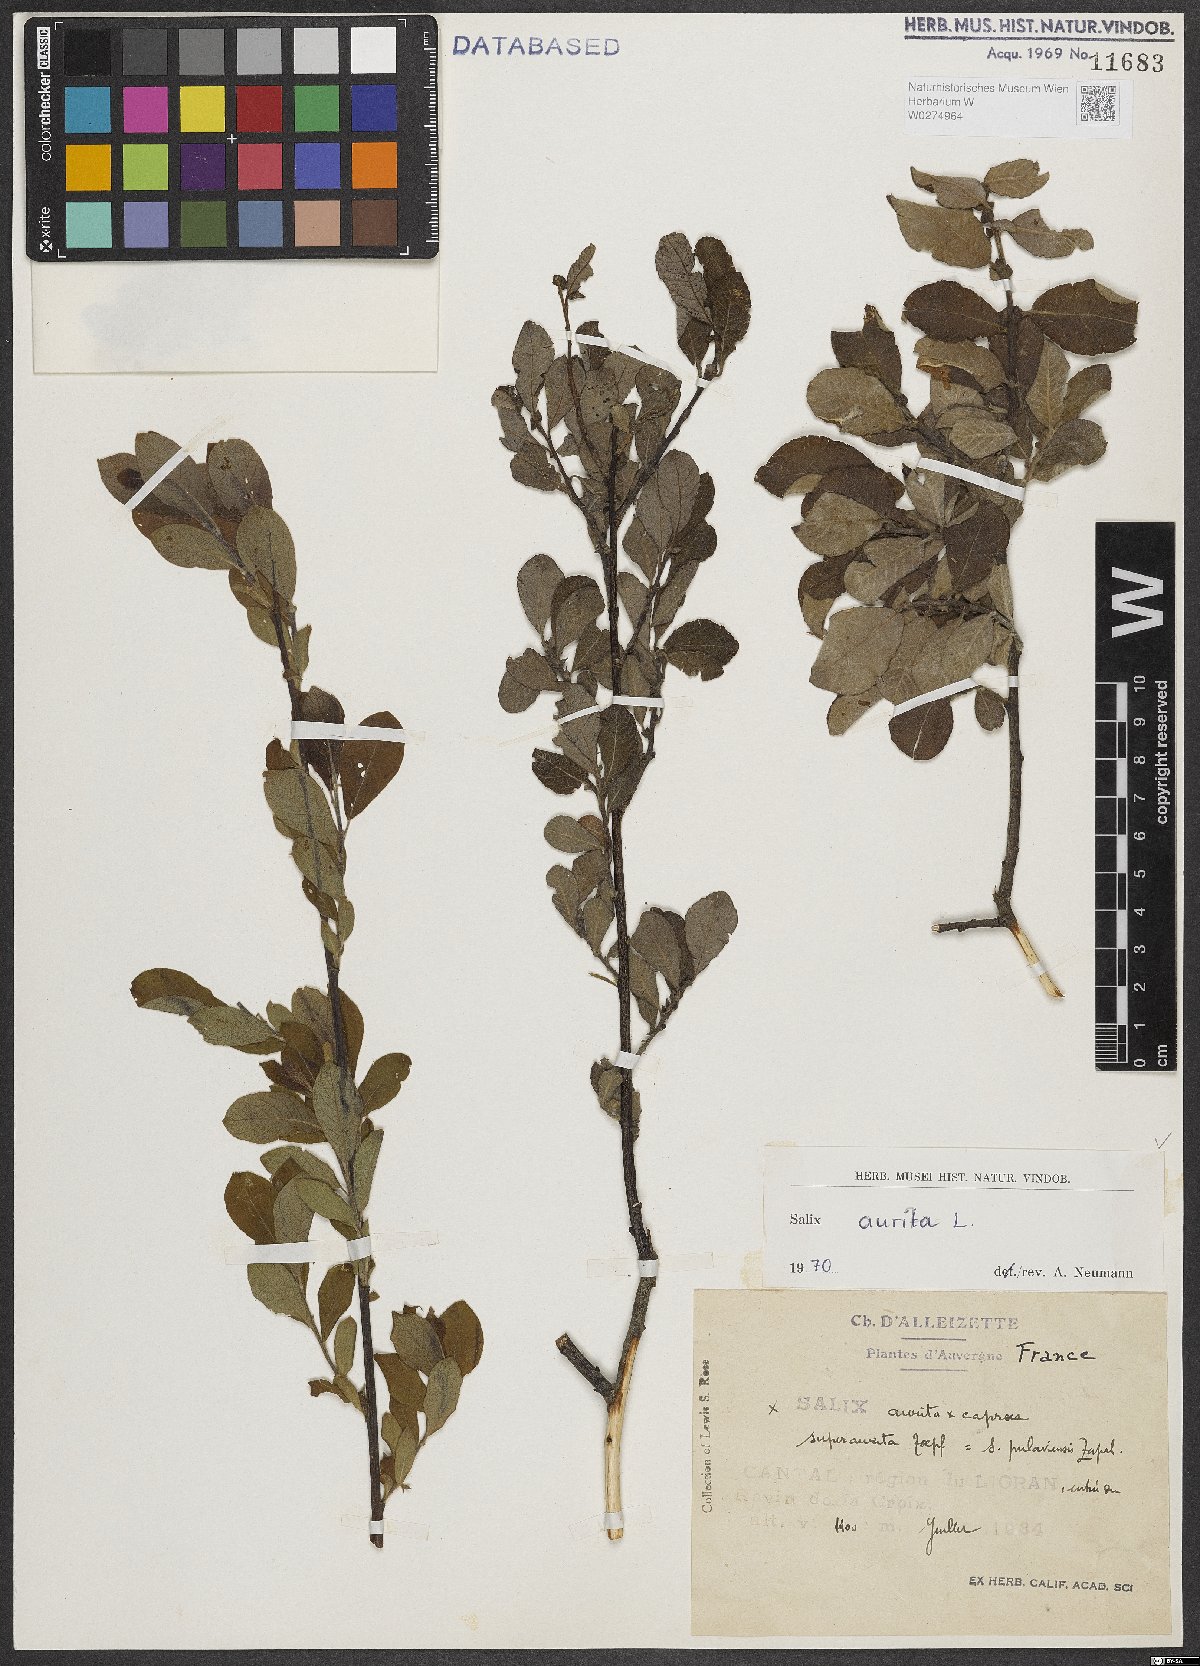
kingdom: Plantae
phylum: Tracheophyta
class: Magnoliopsida
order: Malpighiales
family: Salicaceae
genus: Salix
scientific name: Salix aurita
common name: Eared willow
